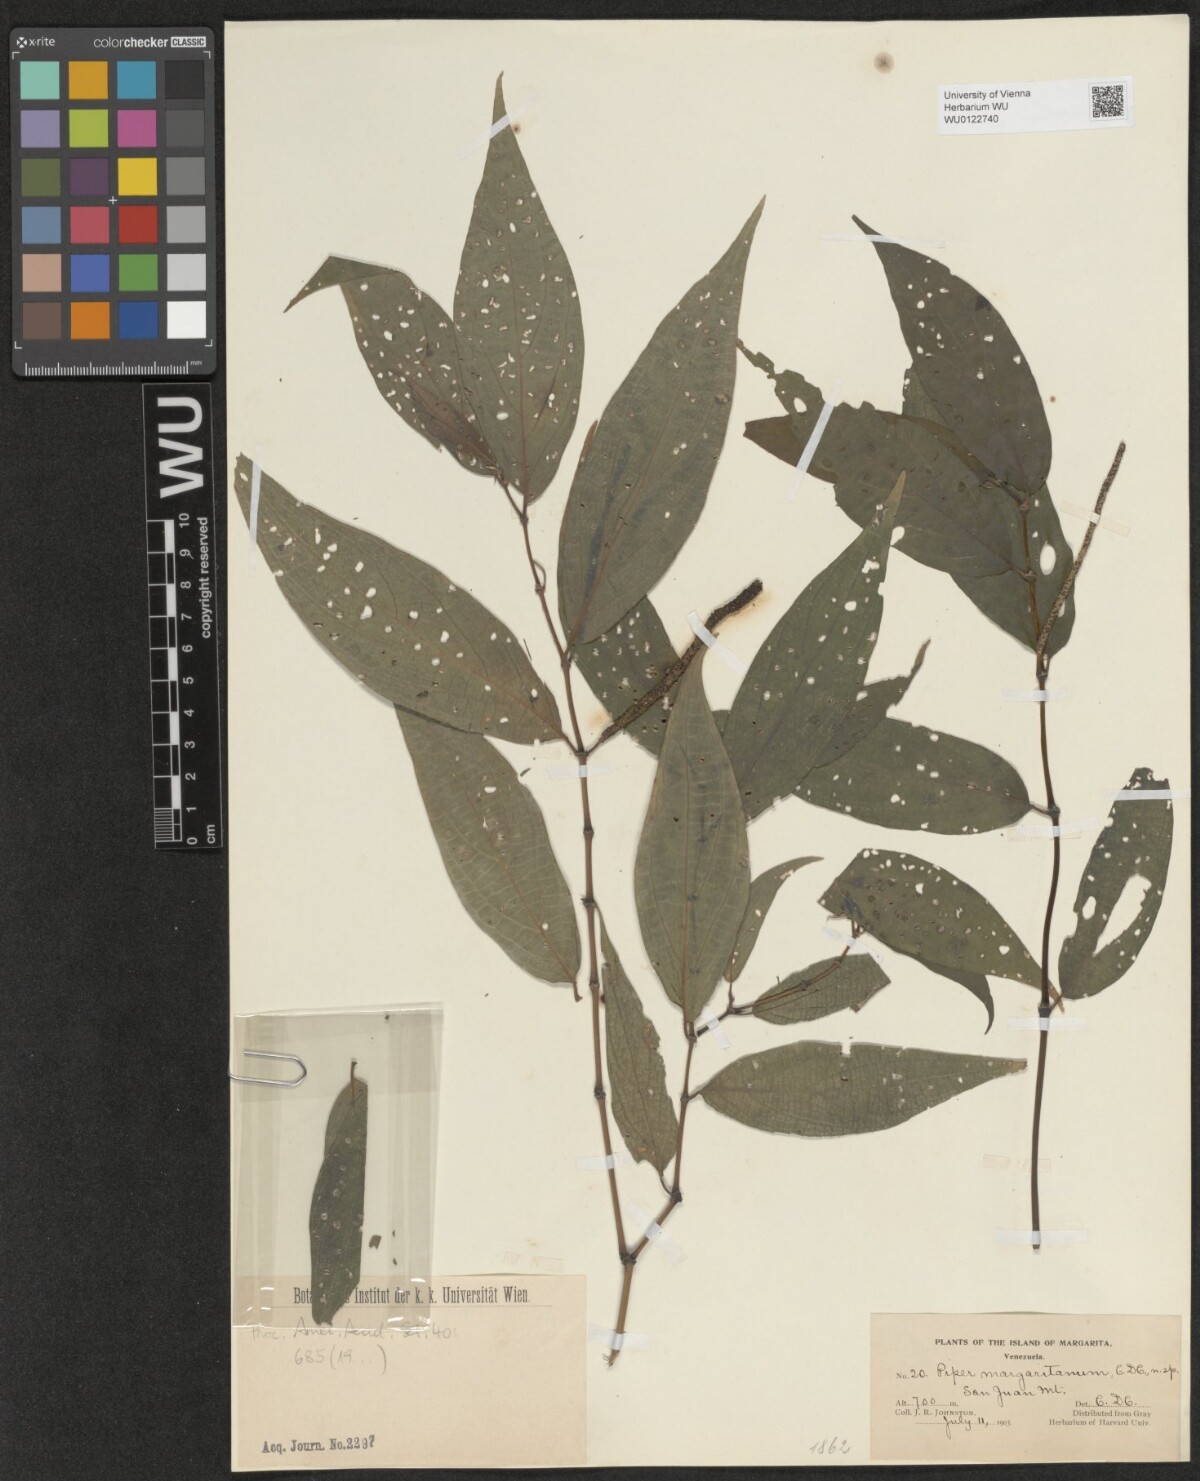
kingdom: Plantae
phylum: Tracheophyta
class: Magnoliopsida
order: Piperales
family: Piperaceae
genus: Piper
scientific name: Piper dilatatum
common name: Higuillo
